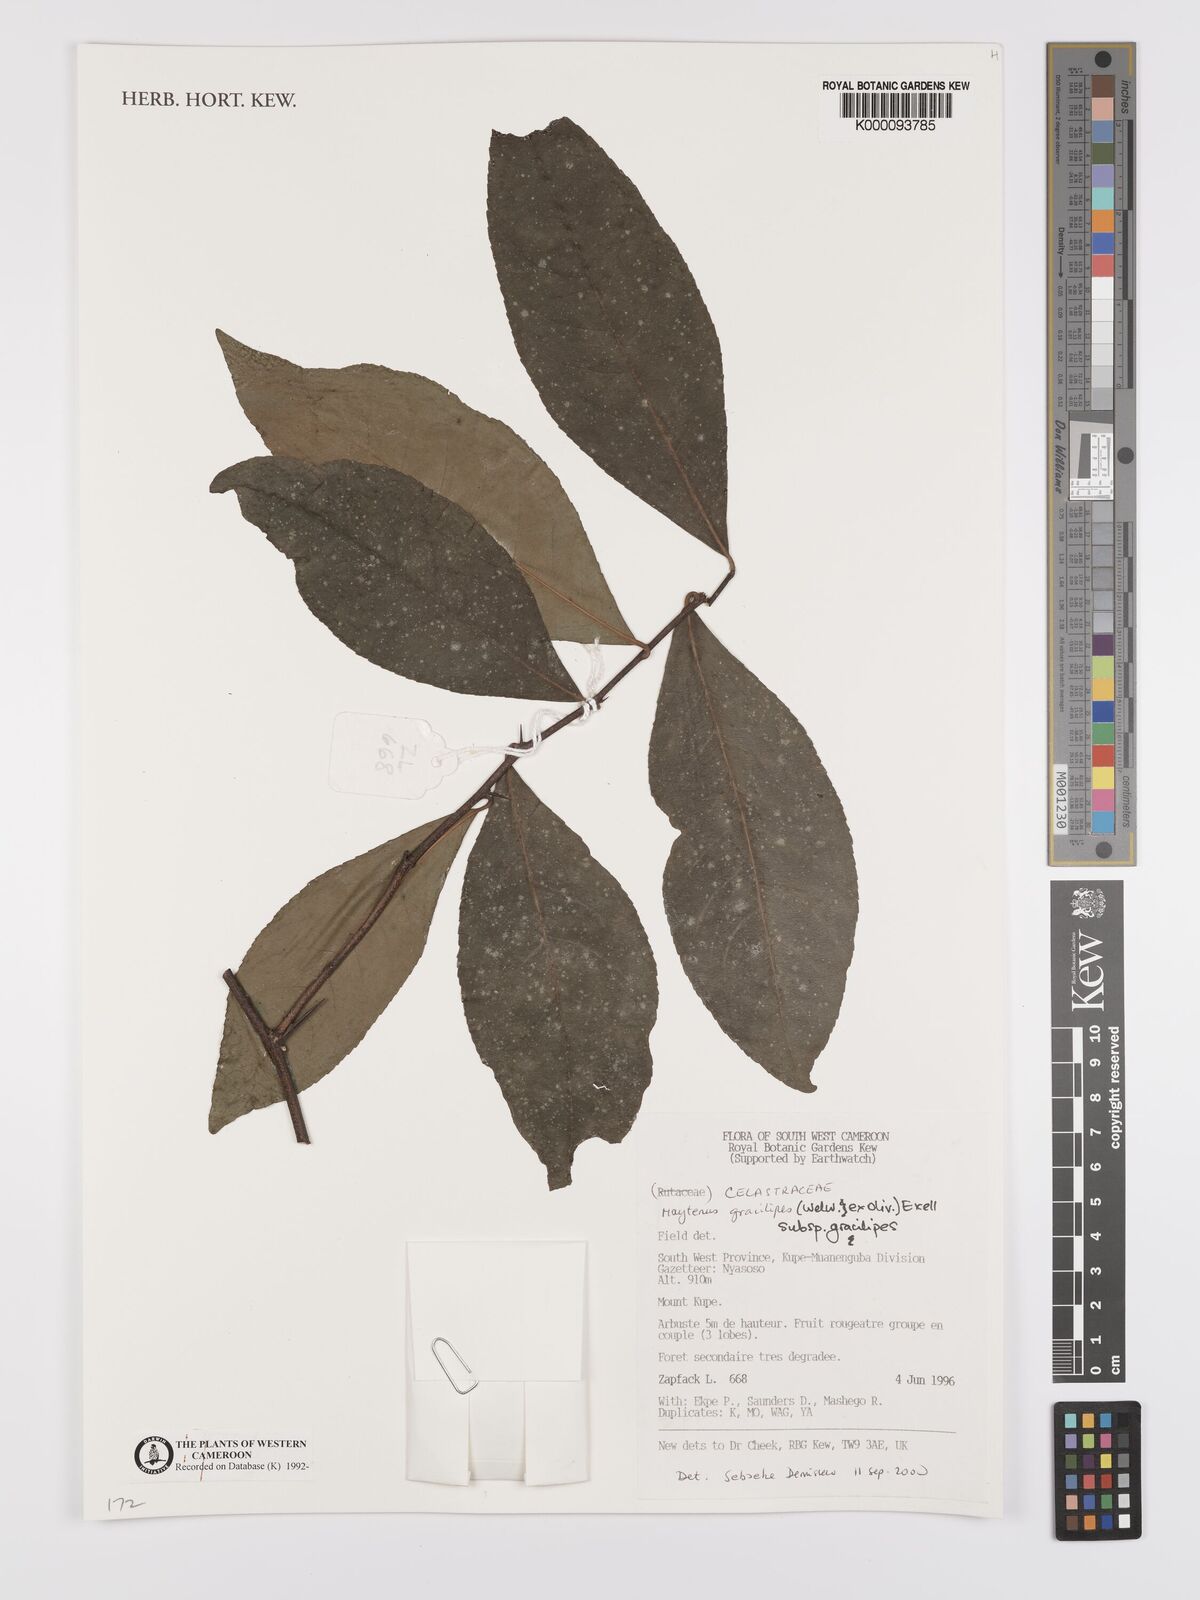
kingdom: Plantae
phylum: Tracheophyta
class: Magnoliopsida
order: Celastrales
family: Celastraceae
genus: Gymnosporia
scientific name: Gymnosporia gracilipes
